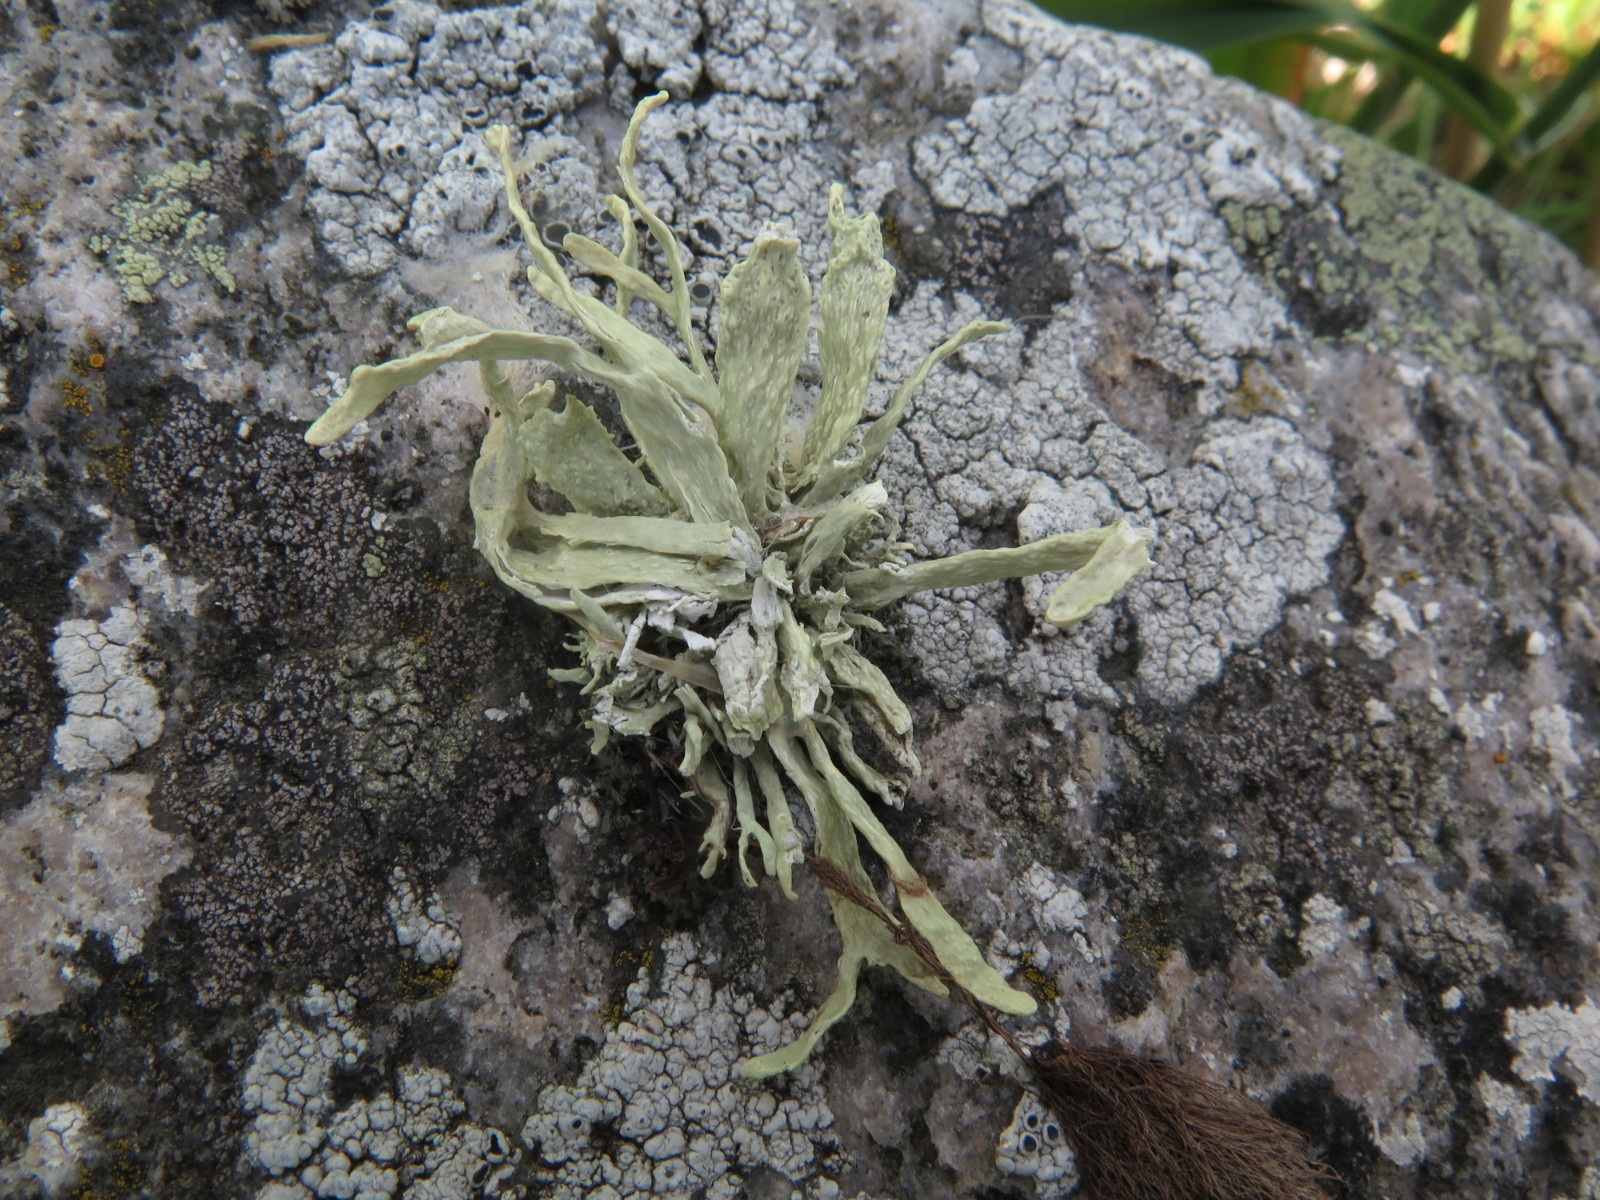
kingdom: Fungi
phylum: Ascomycota
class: Lecanoromycetes
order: Lecanorales
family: Ramalinaceae
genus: Ramalina
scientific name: Ramalina siliquosa
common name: klippe-grenlav
